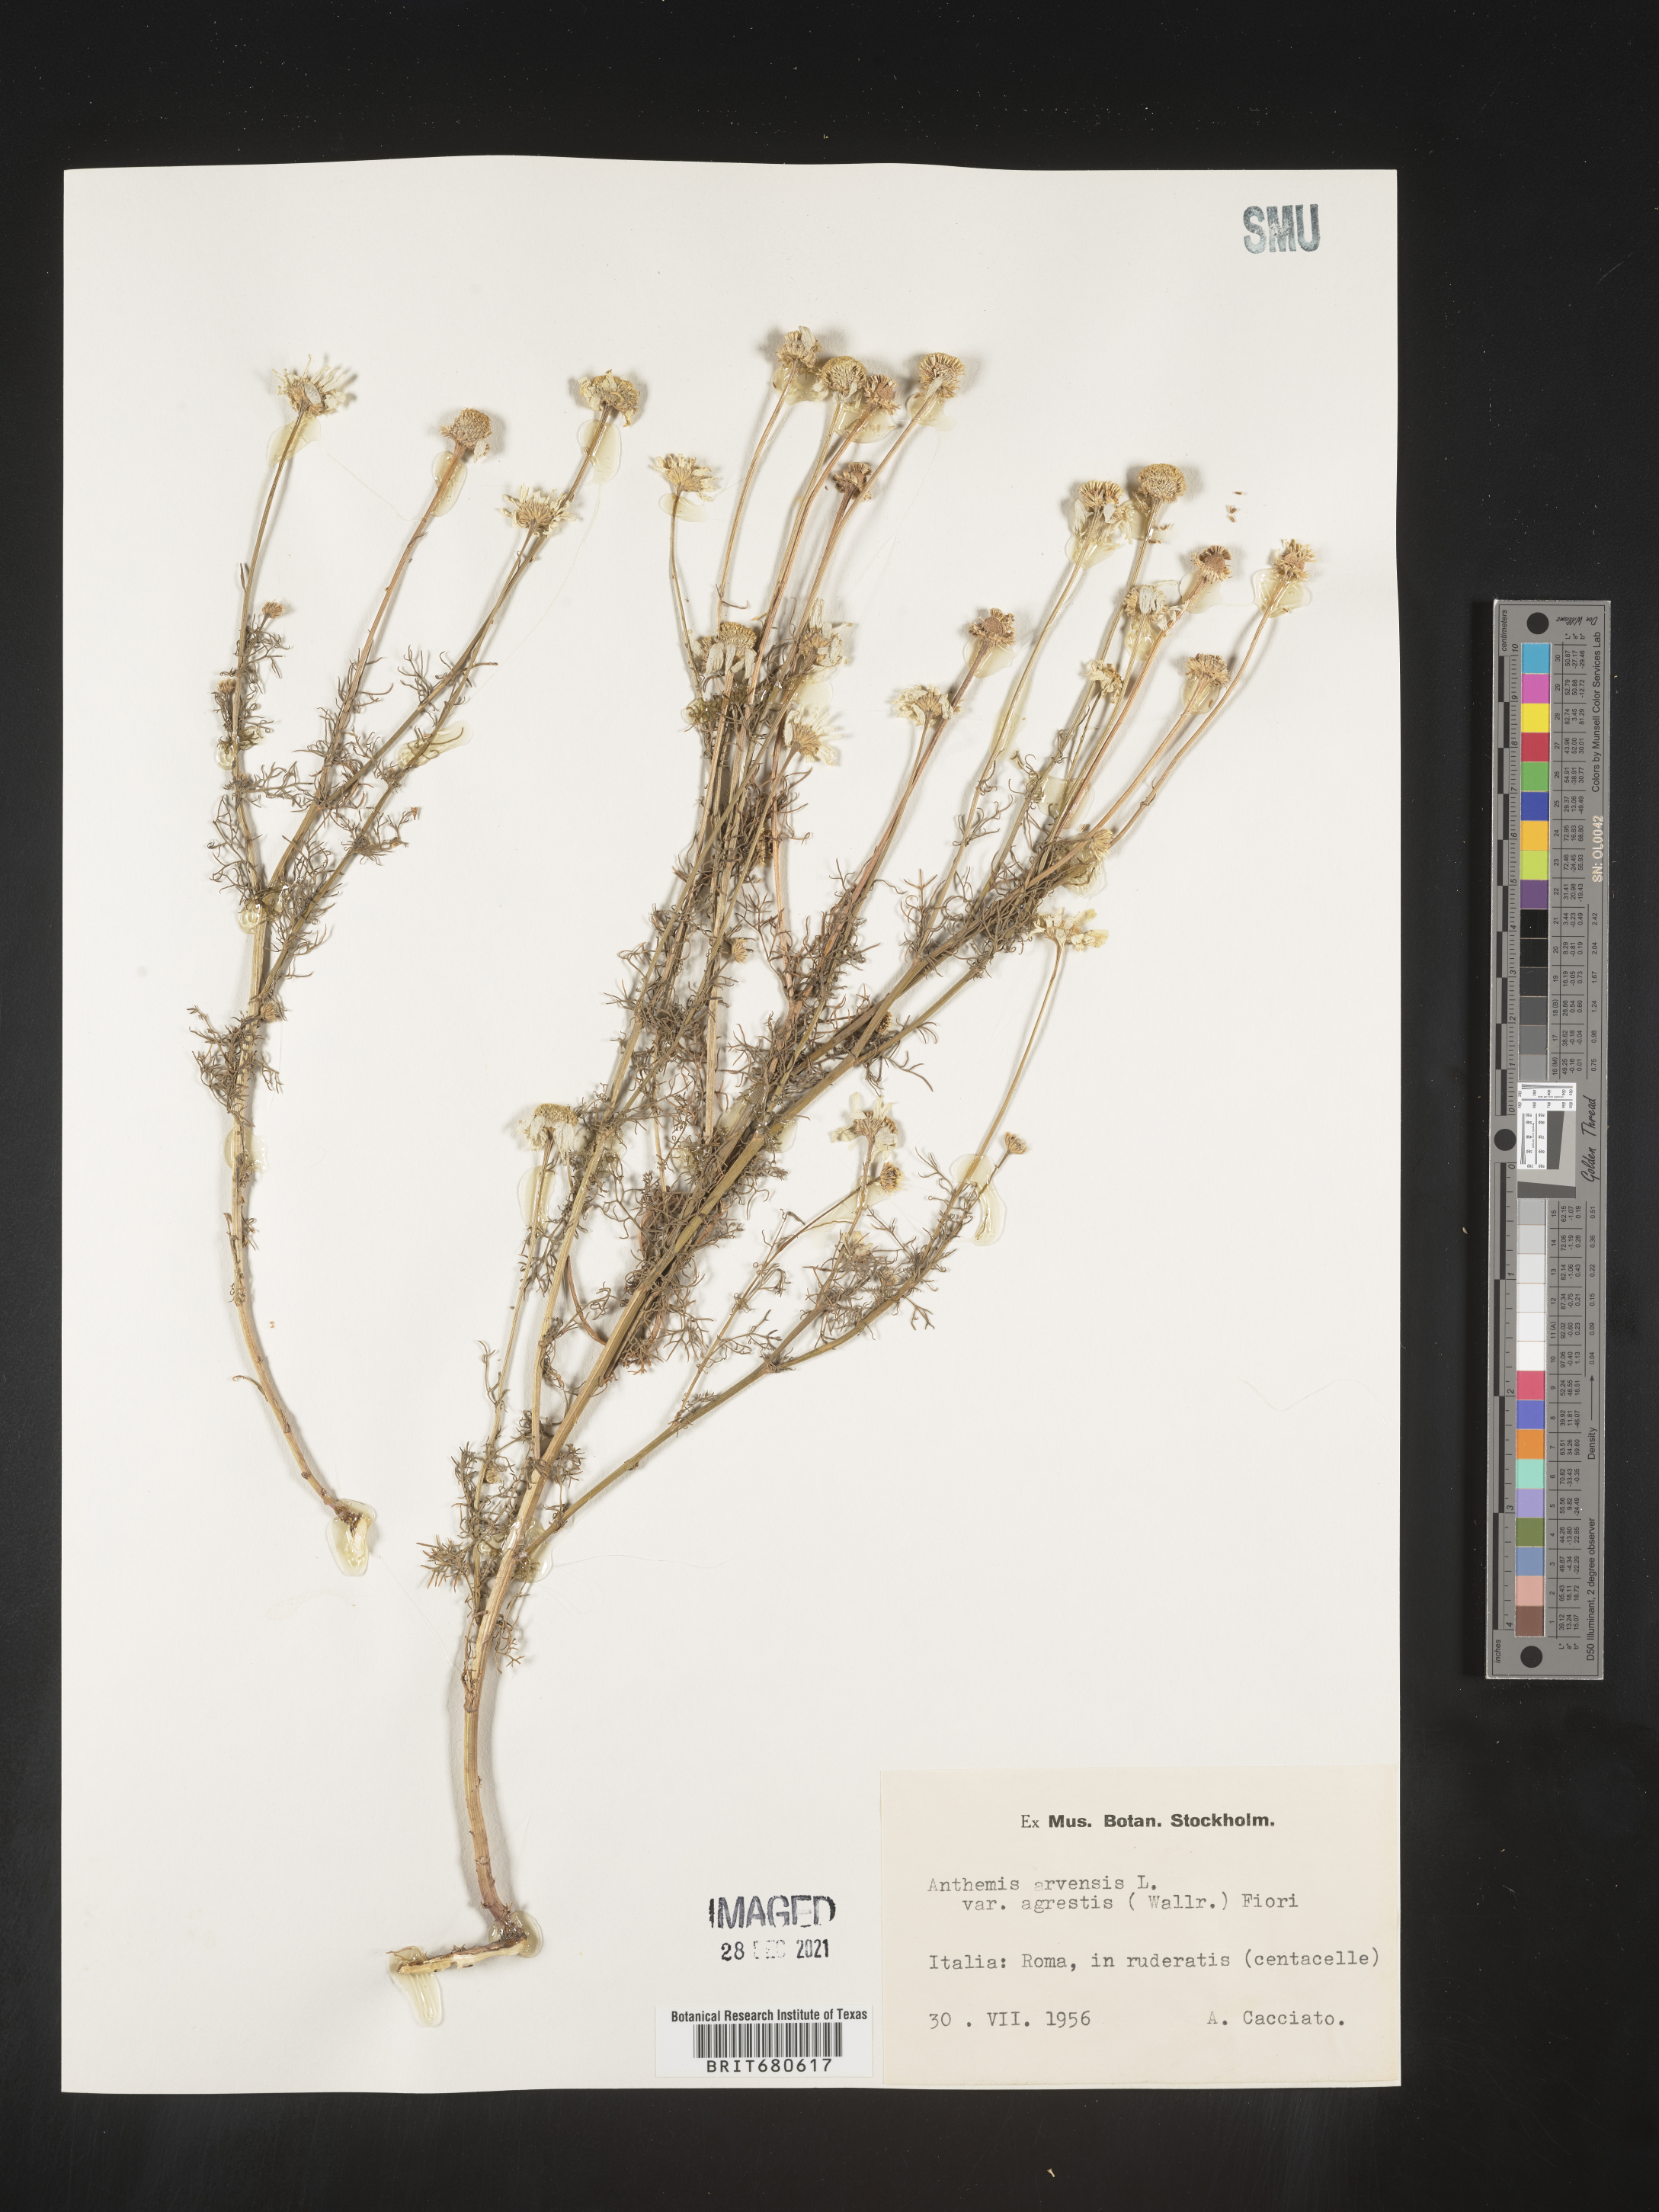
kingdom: Plantae
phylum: Tracheophyta
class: Magnoliopsida
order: Asterales
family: Asteraceae
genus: Anthemis
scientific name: Anthemis
